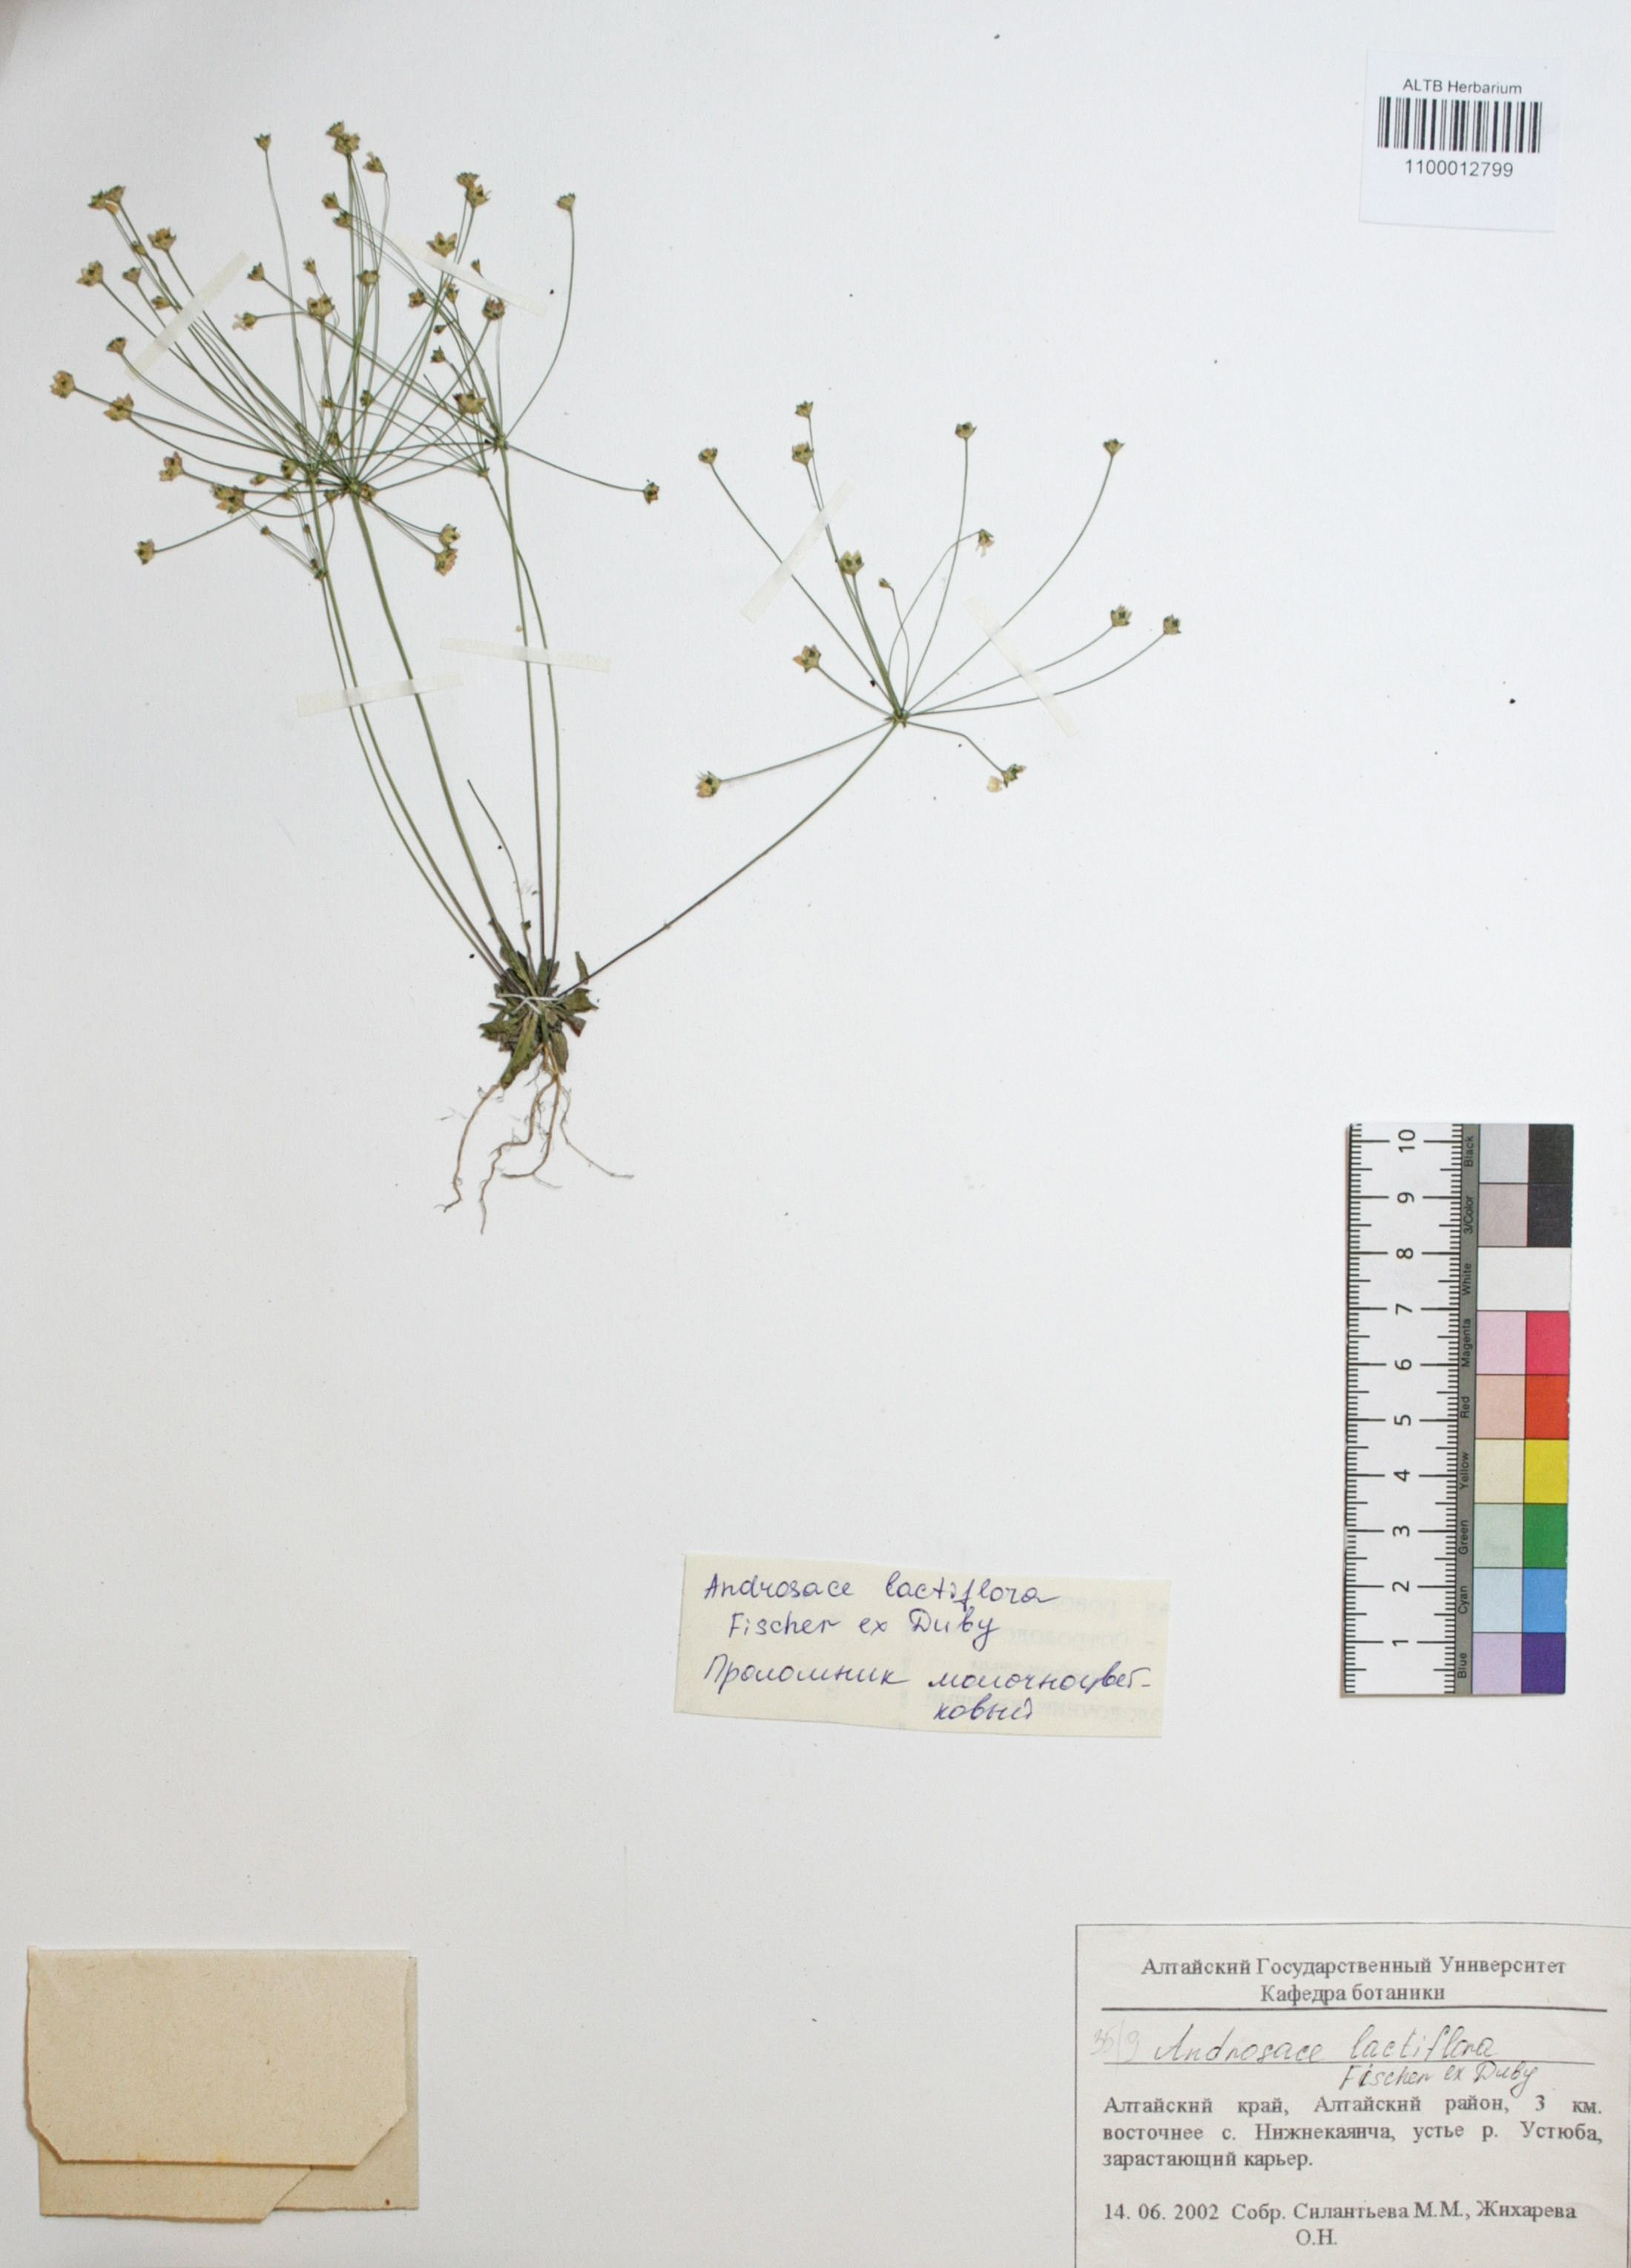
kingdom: Plantae
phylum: Tracheophyta
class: Magnoliopsida
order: Ericales
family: Primulaceae
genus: Androsace
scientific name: Androsace lactiflora
